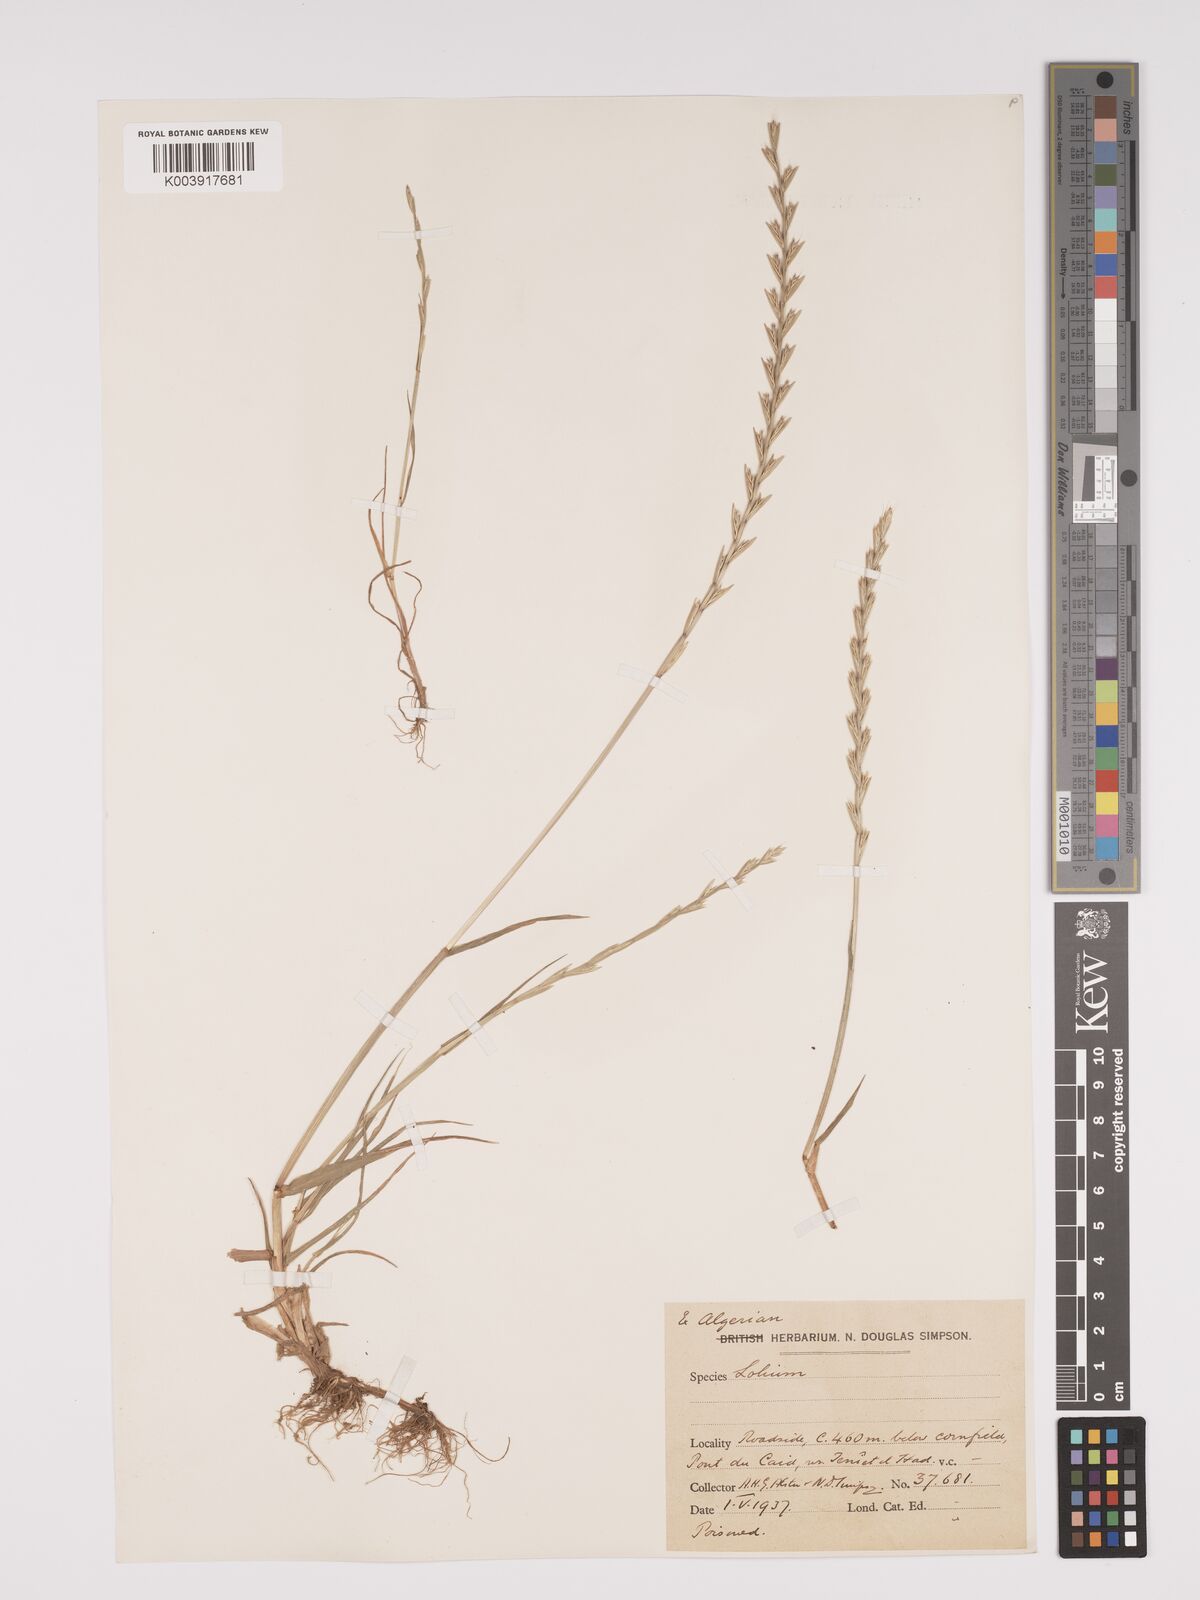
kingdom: Plantae
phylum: Tracheophyta
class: Liliopsida
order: Poales
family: Poaceae
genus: Lolium
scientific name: Lolium rigidum
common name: Wimmera ryegrass
